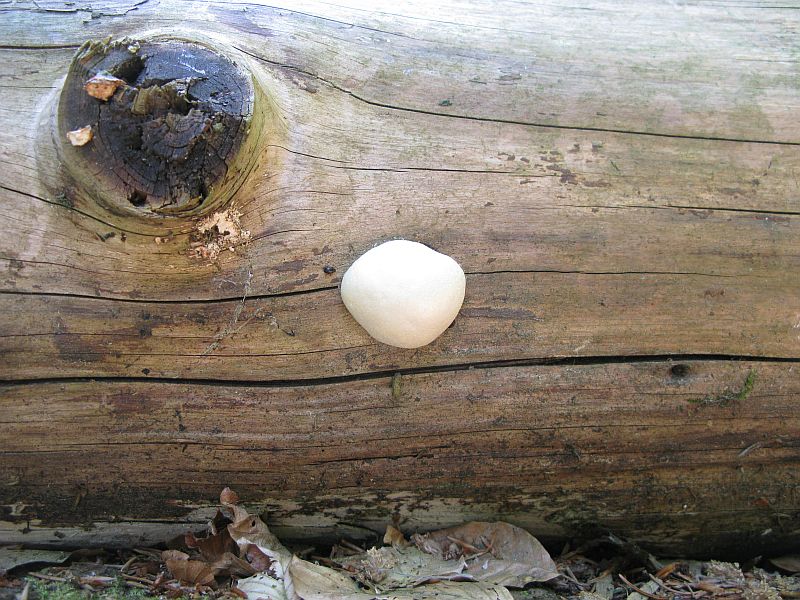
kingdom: Protozoa
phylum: Mycetozoa
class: Myxomycetes
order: Cribrariales
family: Tubiferaceae
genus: Reticularia
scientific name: Reticularia lycoperdon
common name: skinnende støvpude
